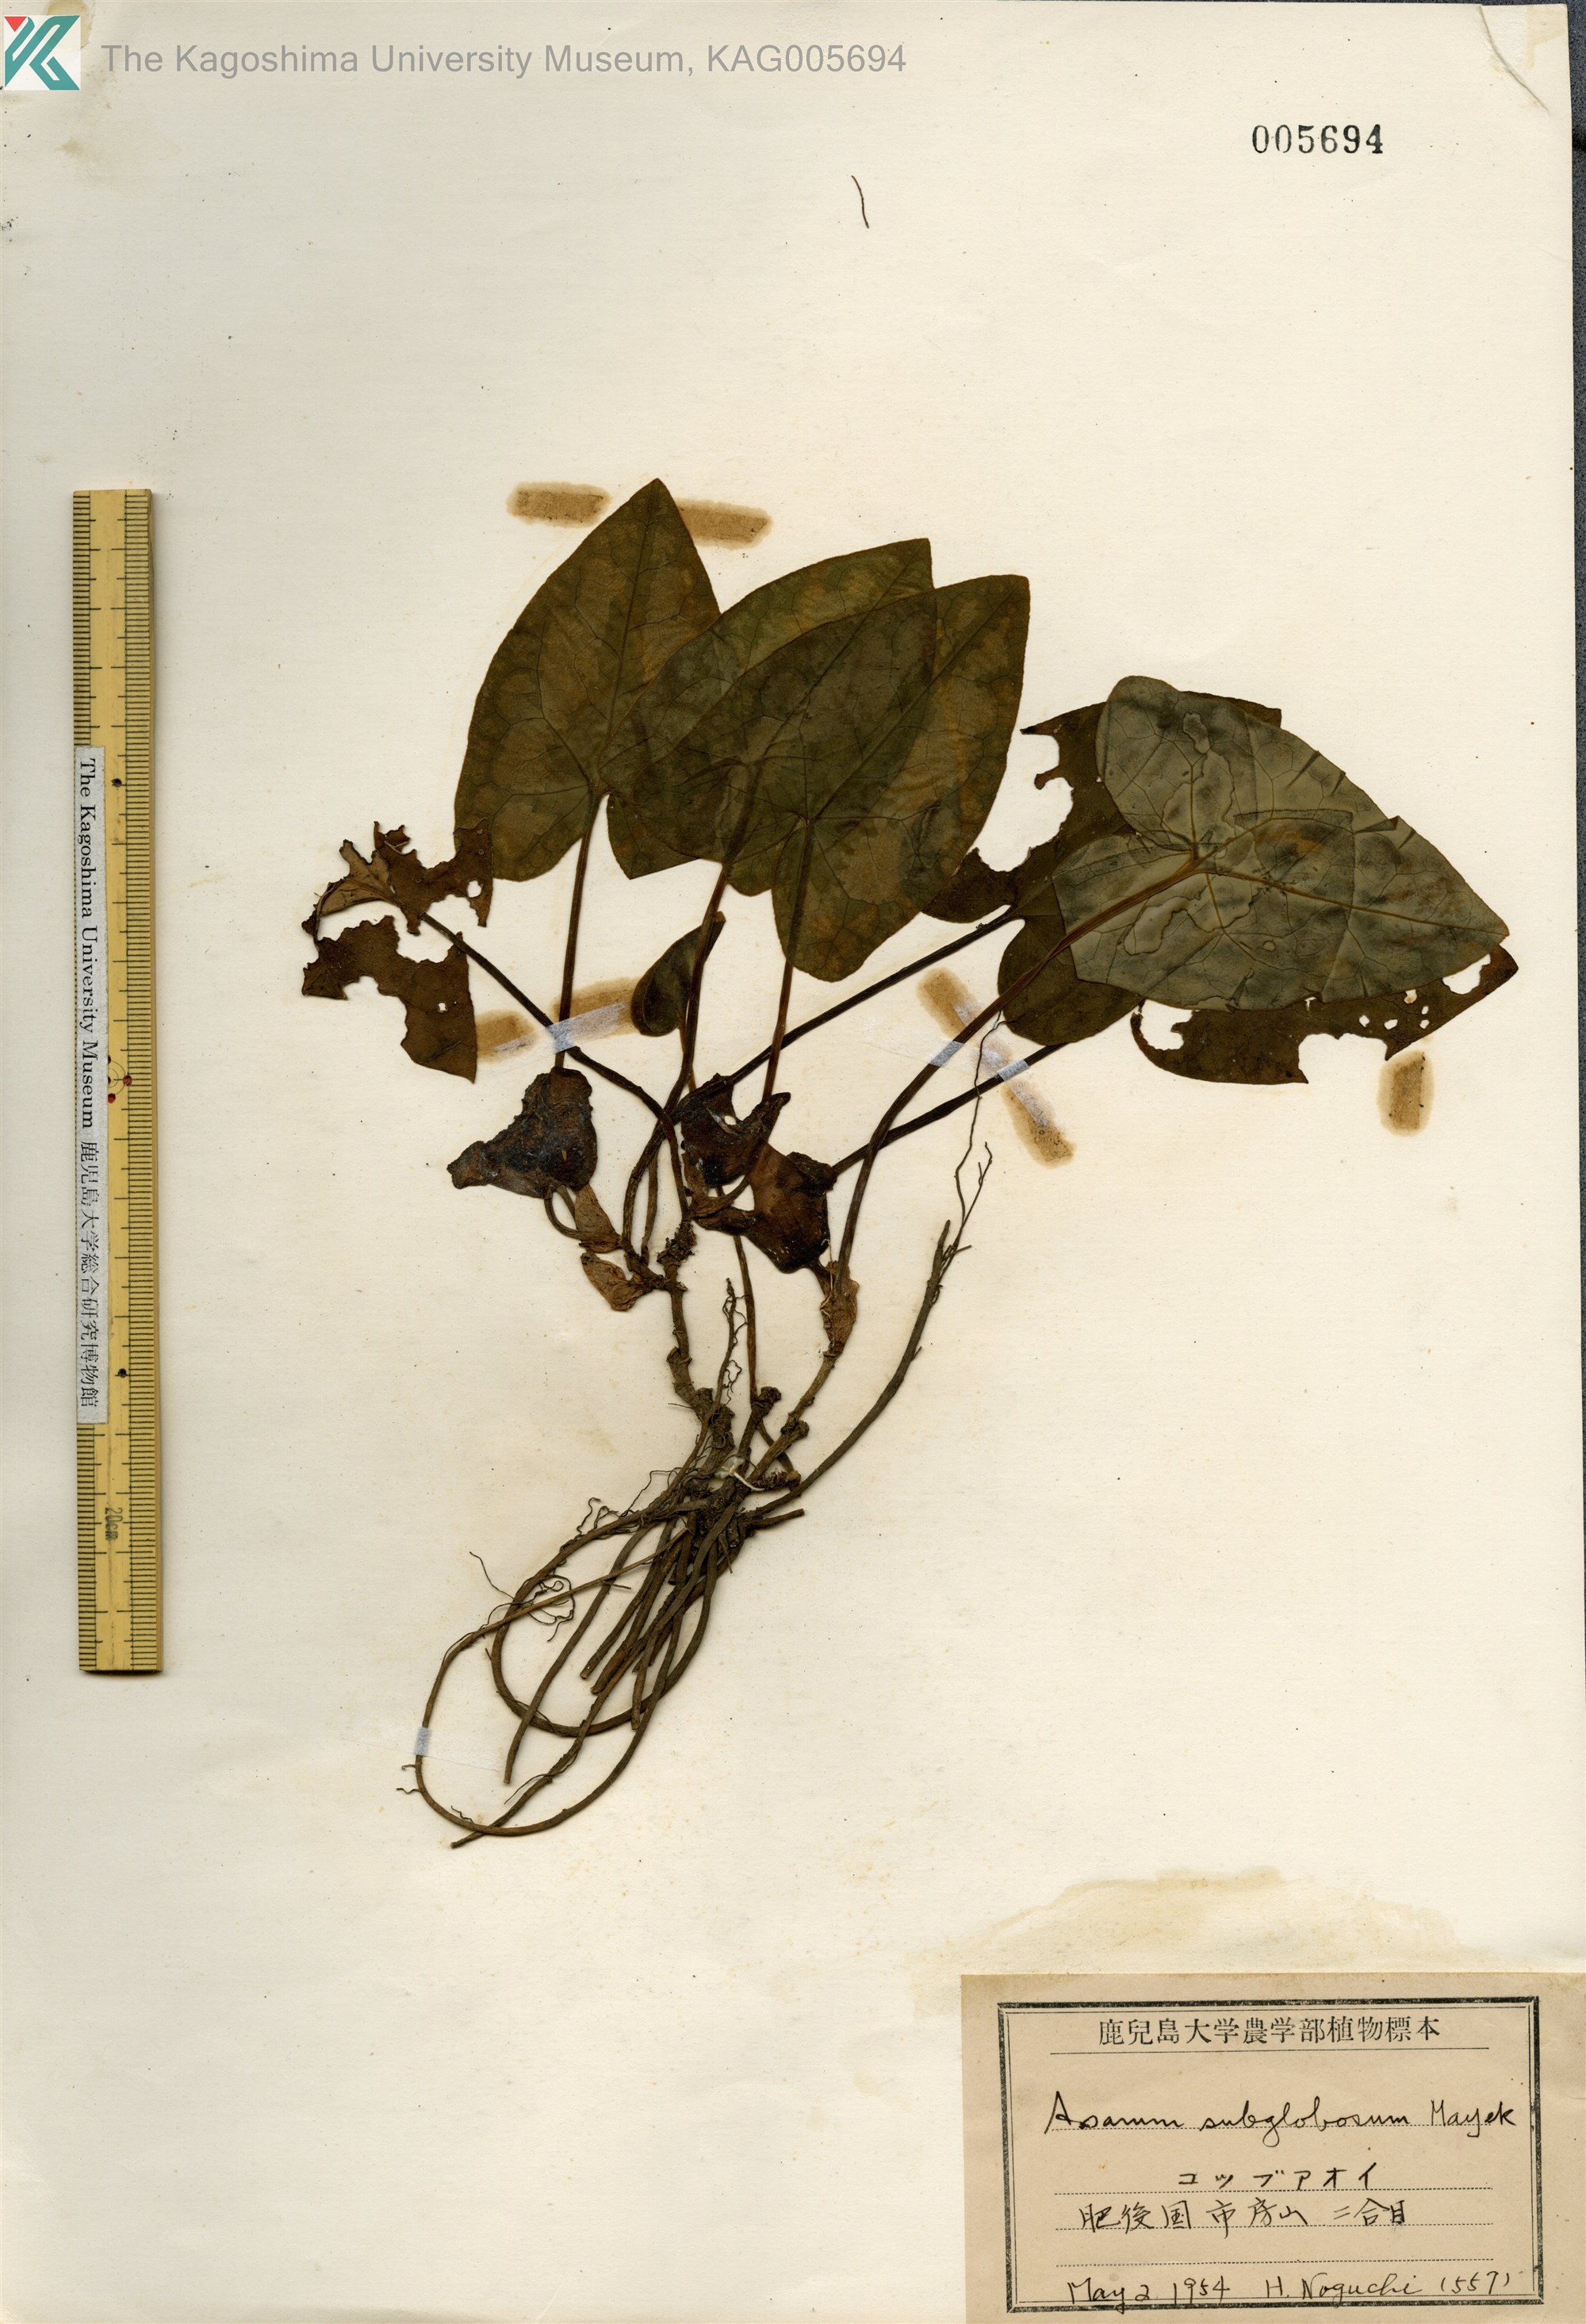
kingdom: Plantae
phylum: Tracheophyta
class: Magnoliopsida
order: Piperales
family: Aristolochiaceae
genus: Asarum
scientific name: Asarum subglobosum
